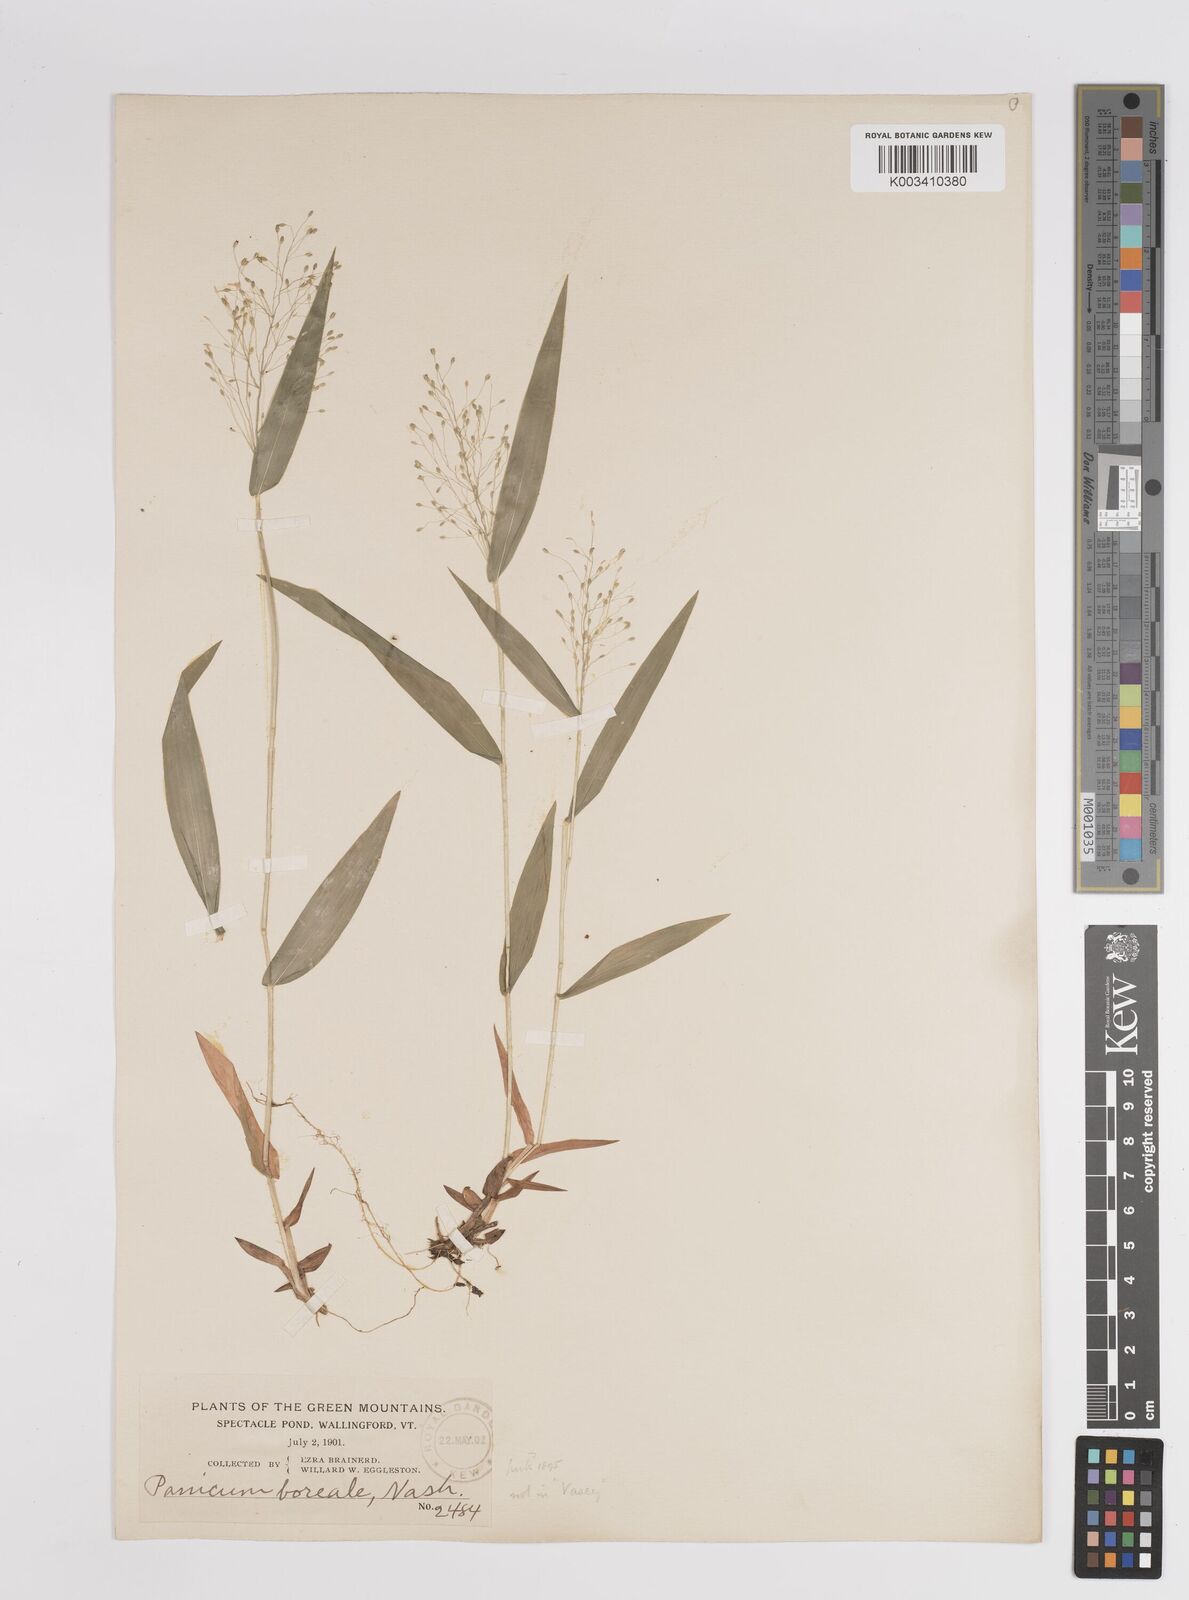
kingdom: Plantae
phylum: Tracheophyta
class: Liliopsida
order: Poales
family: Poaceae
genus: Dichanthelium
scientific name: Dichanthelium boreale
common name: Northern panicgrass
